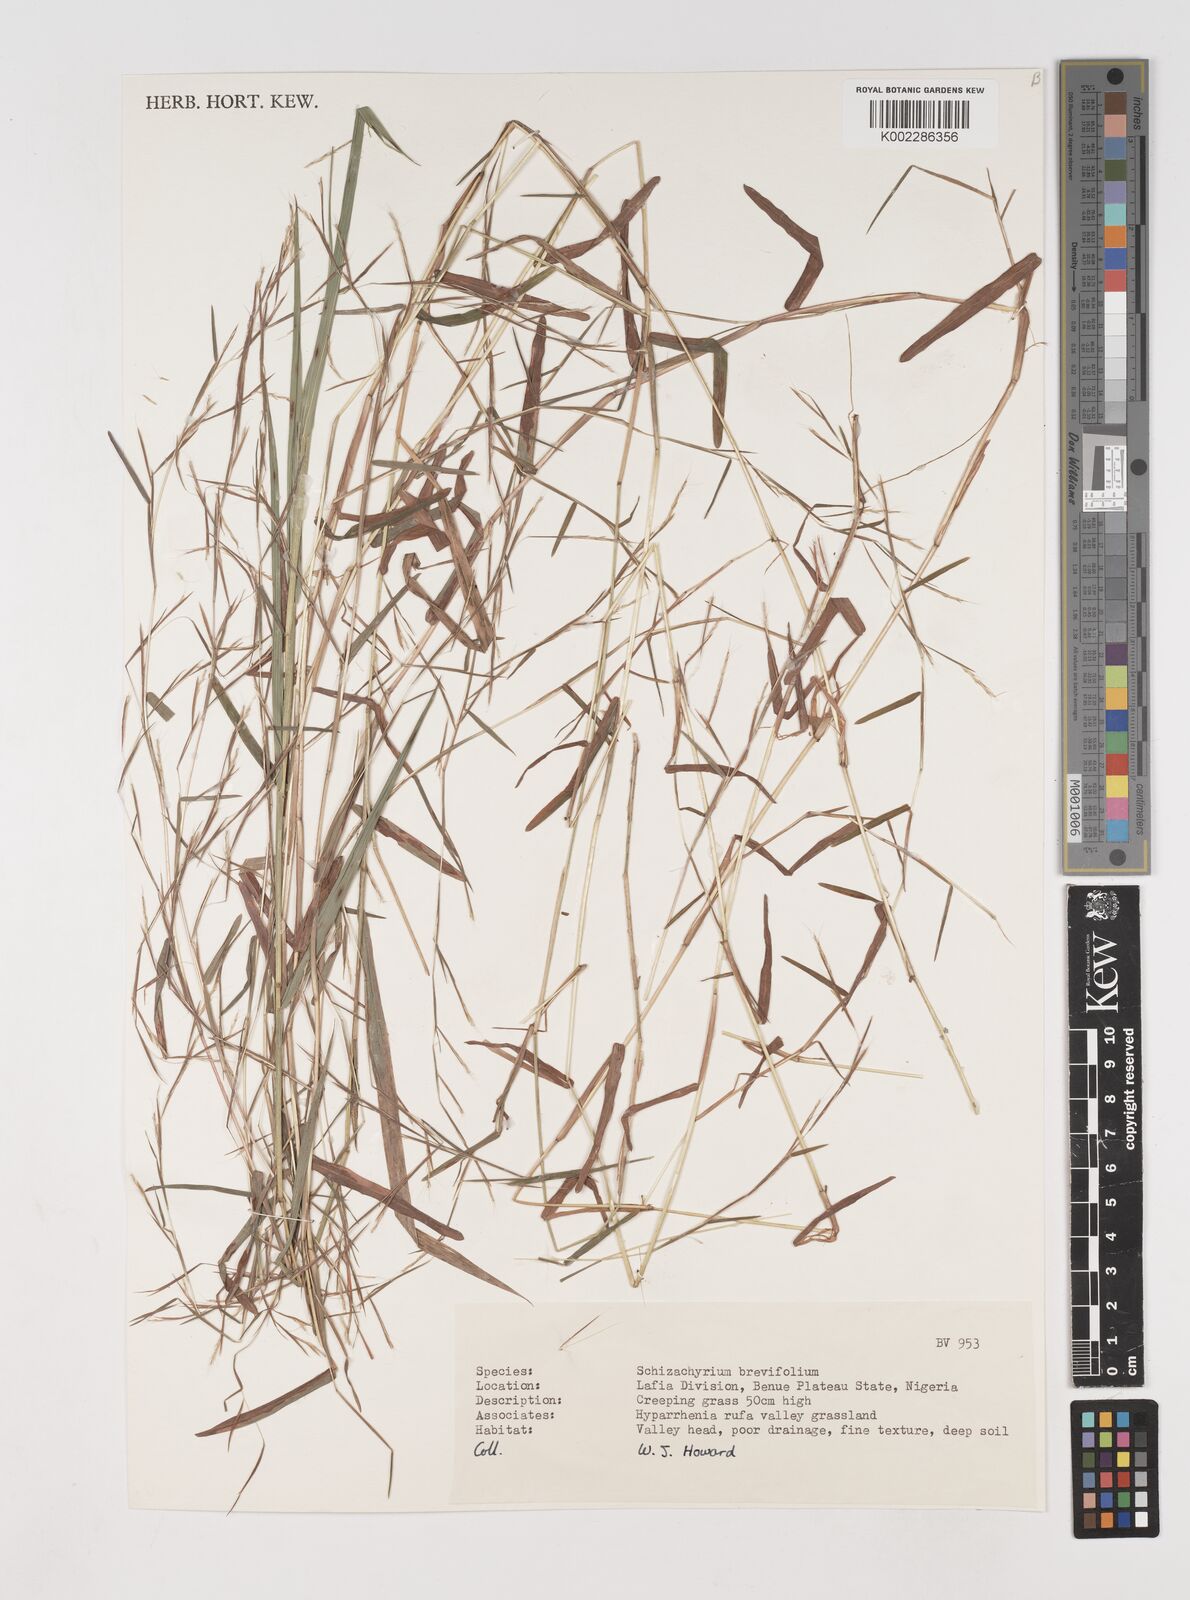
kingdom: Plantae
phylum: Tracheophyta
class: Liliopsida
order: Poales
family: Poaceae
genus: Schizachyrium
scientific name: Schizachyrium brevifolium
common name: Serillo dulce
